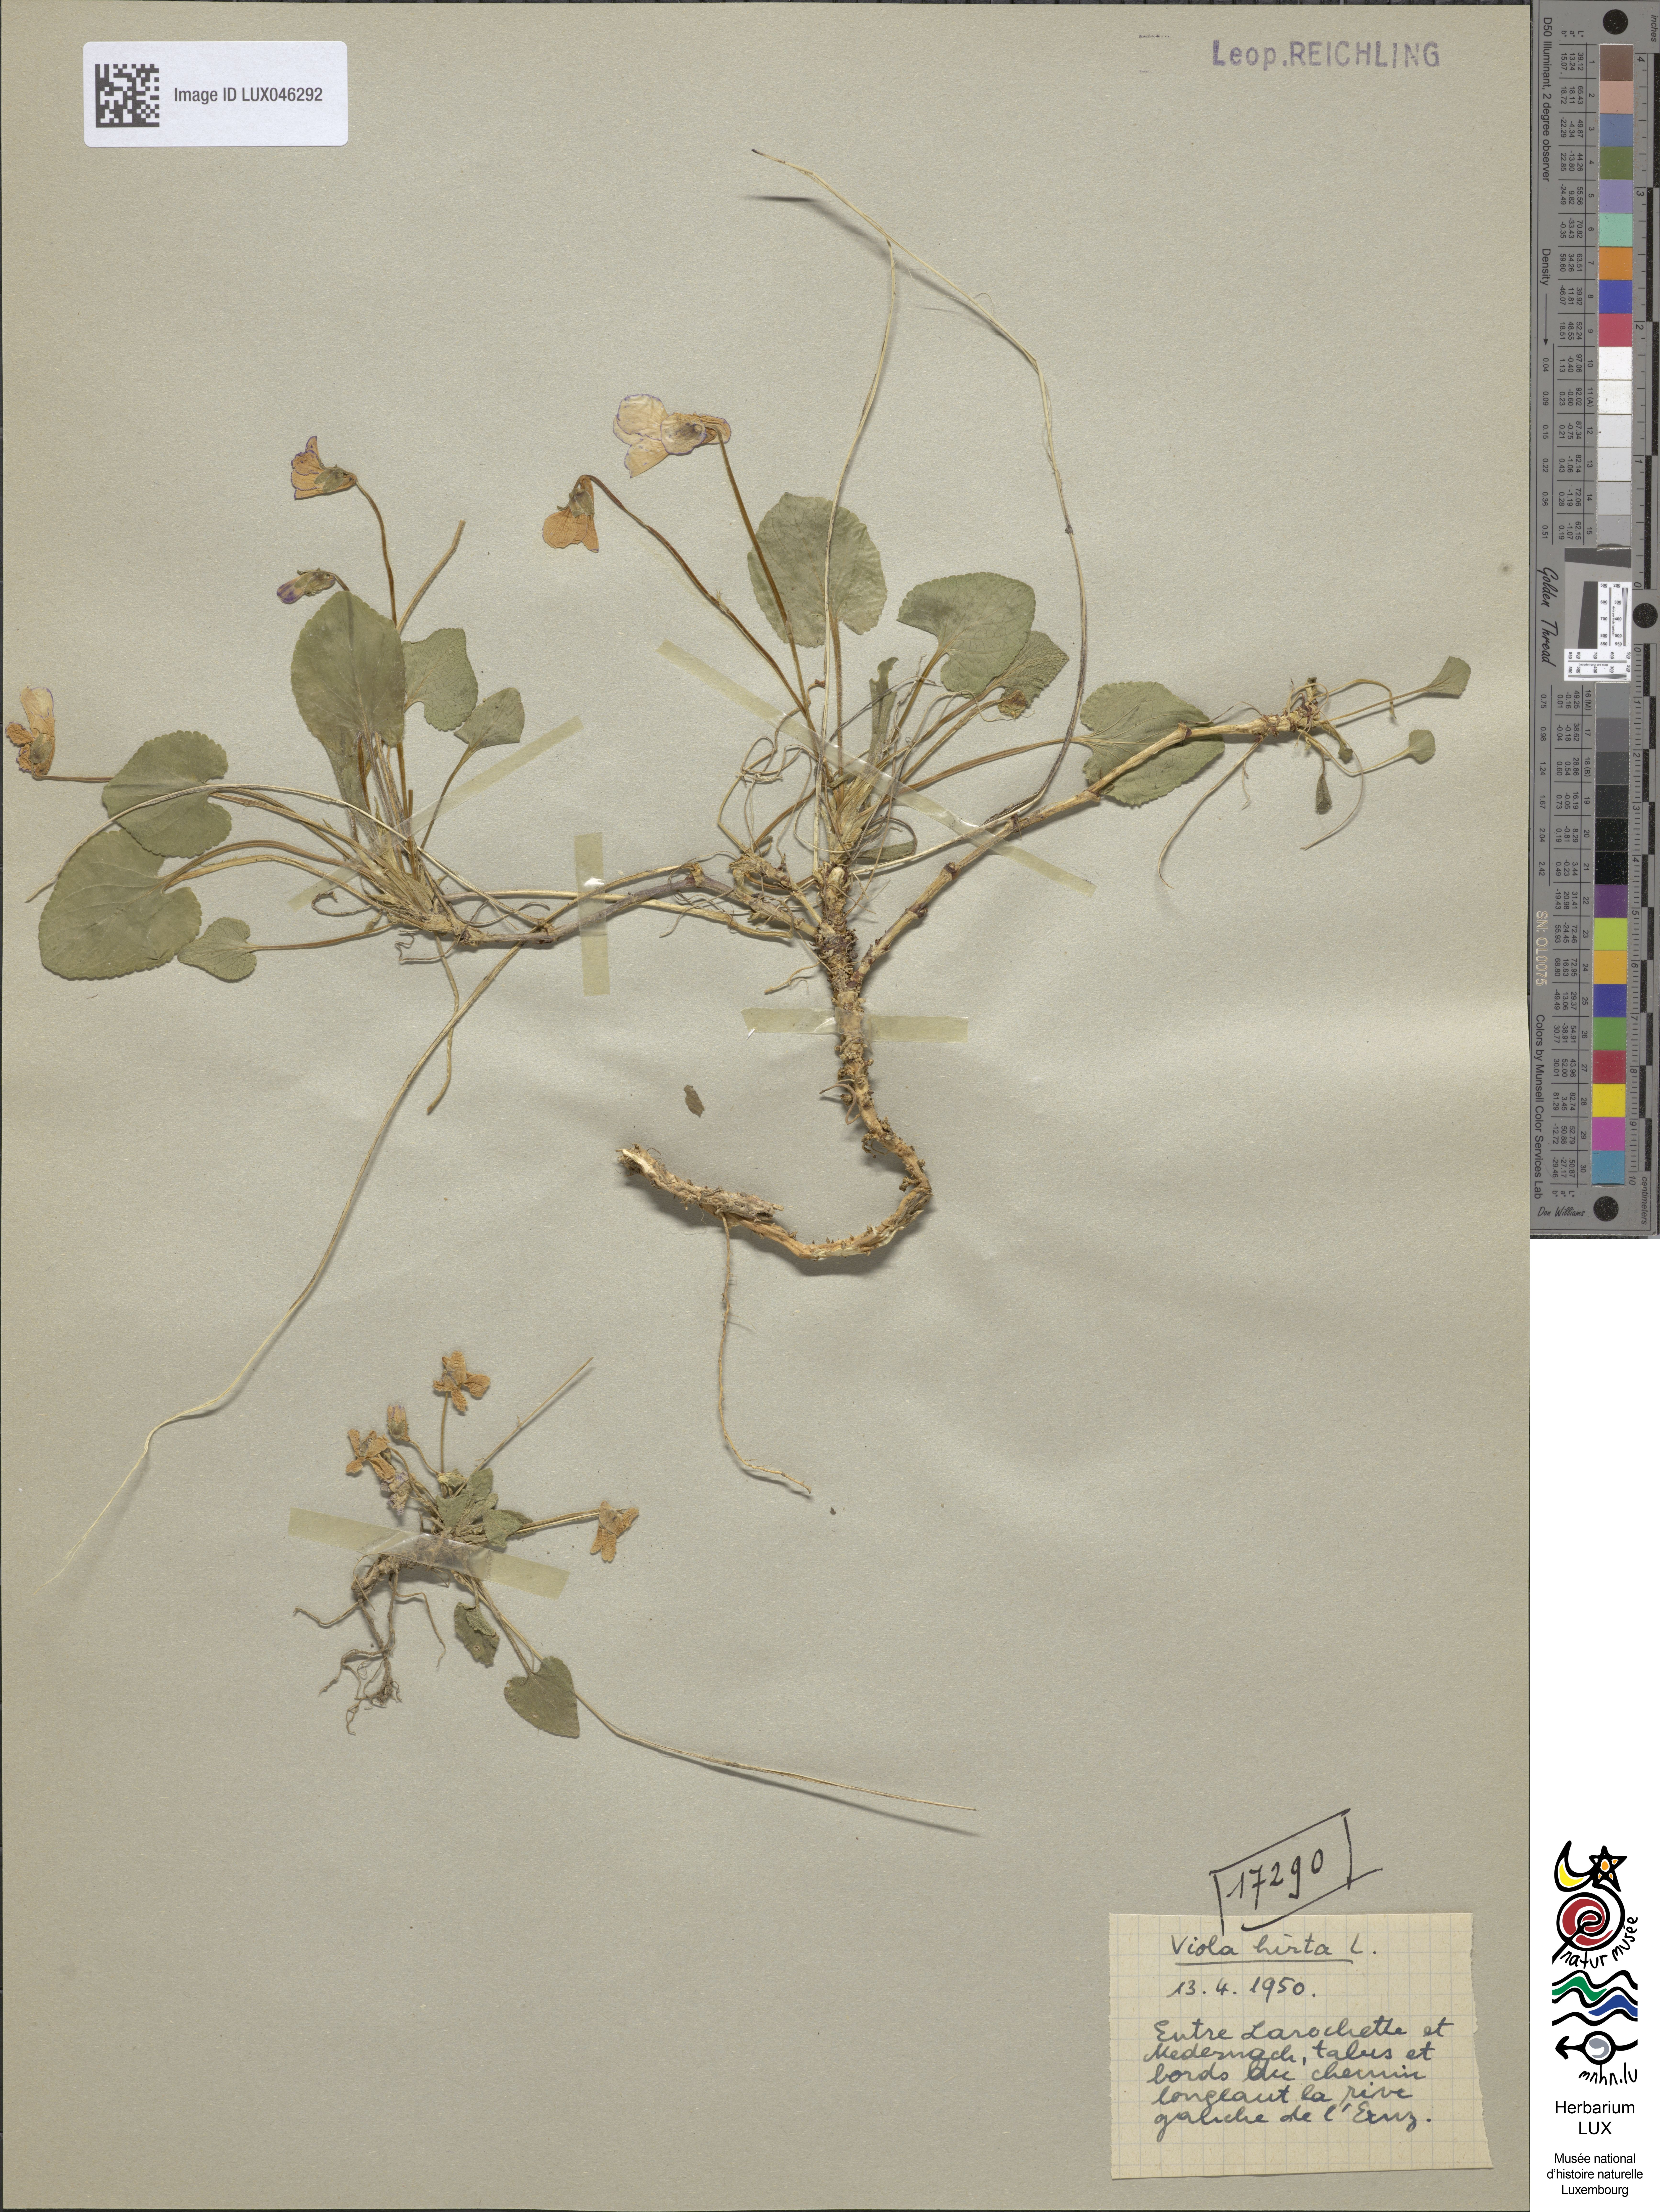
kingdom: Plantae
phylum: Tracheophyta
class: Magnoliopsida
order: Malpighiales
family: Violaceae
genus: Viola
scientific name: Viola hirta
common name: Hairy violet
